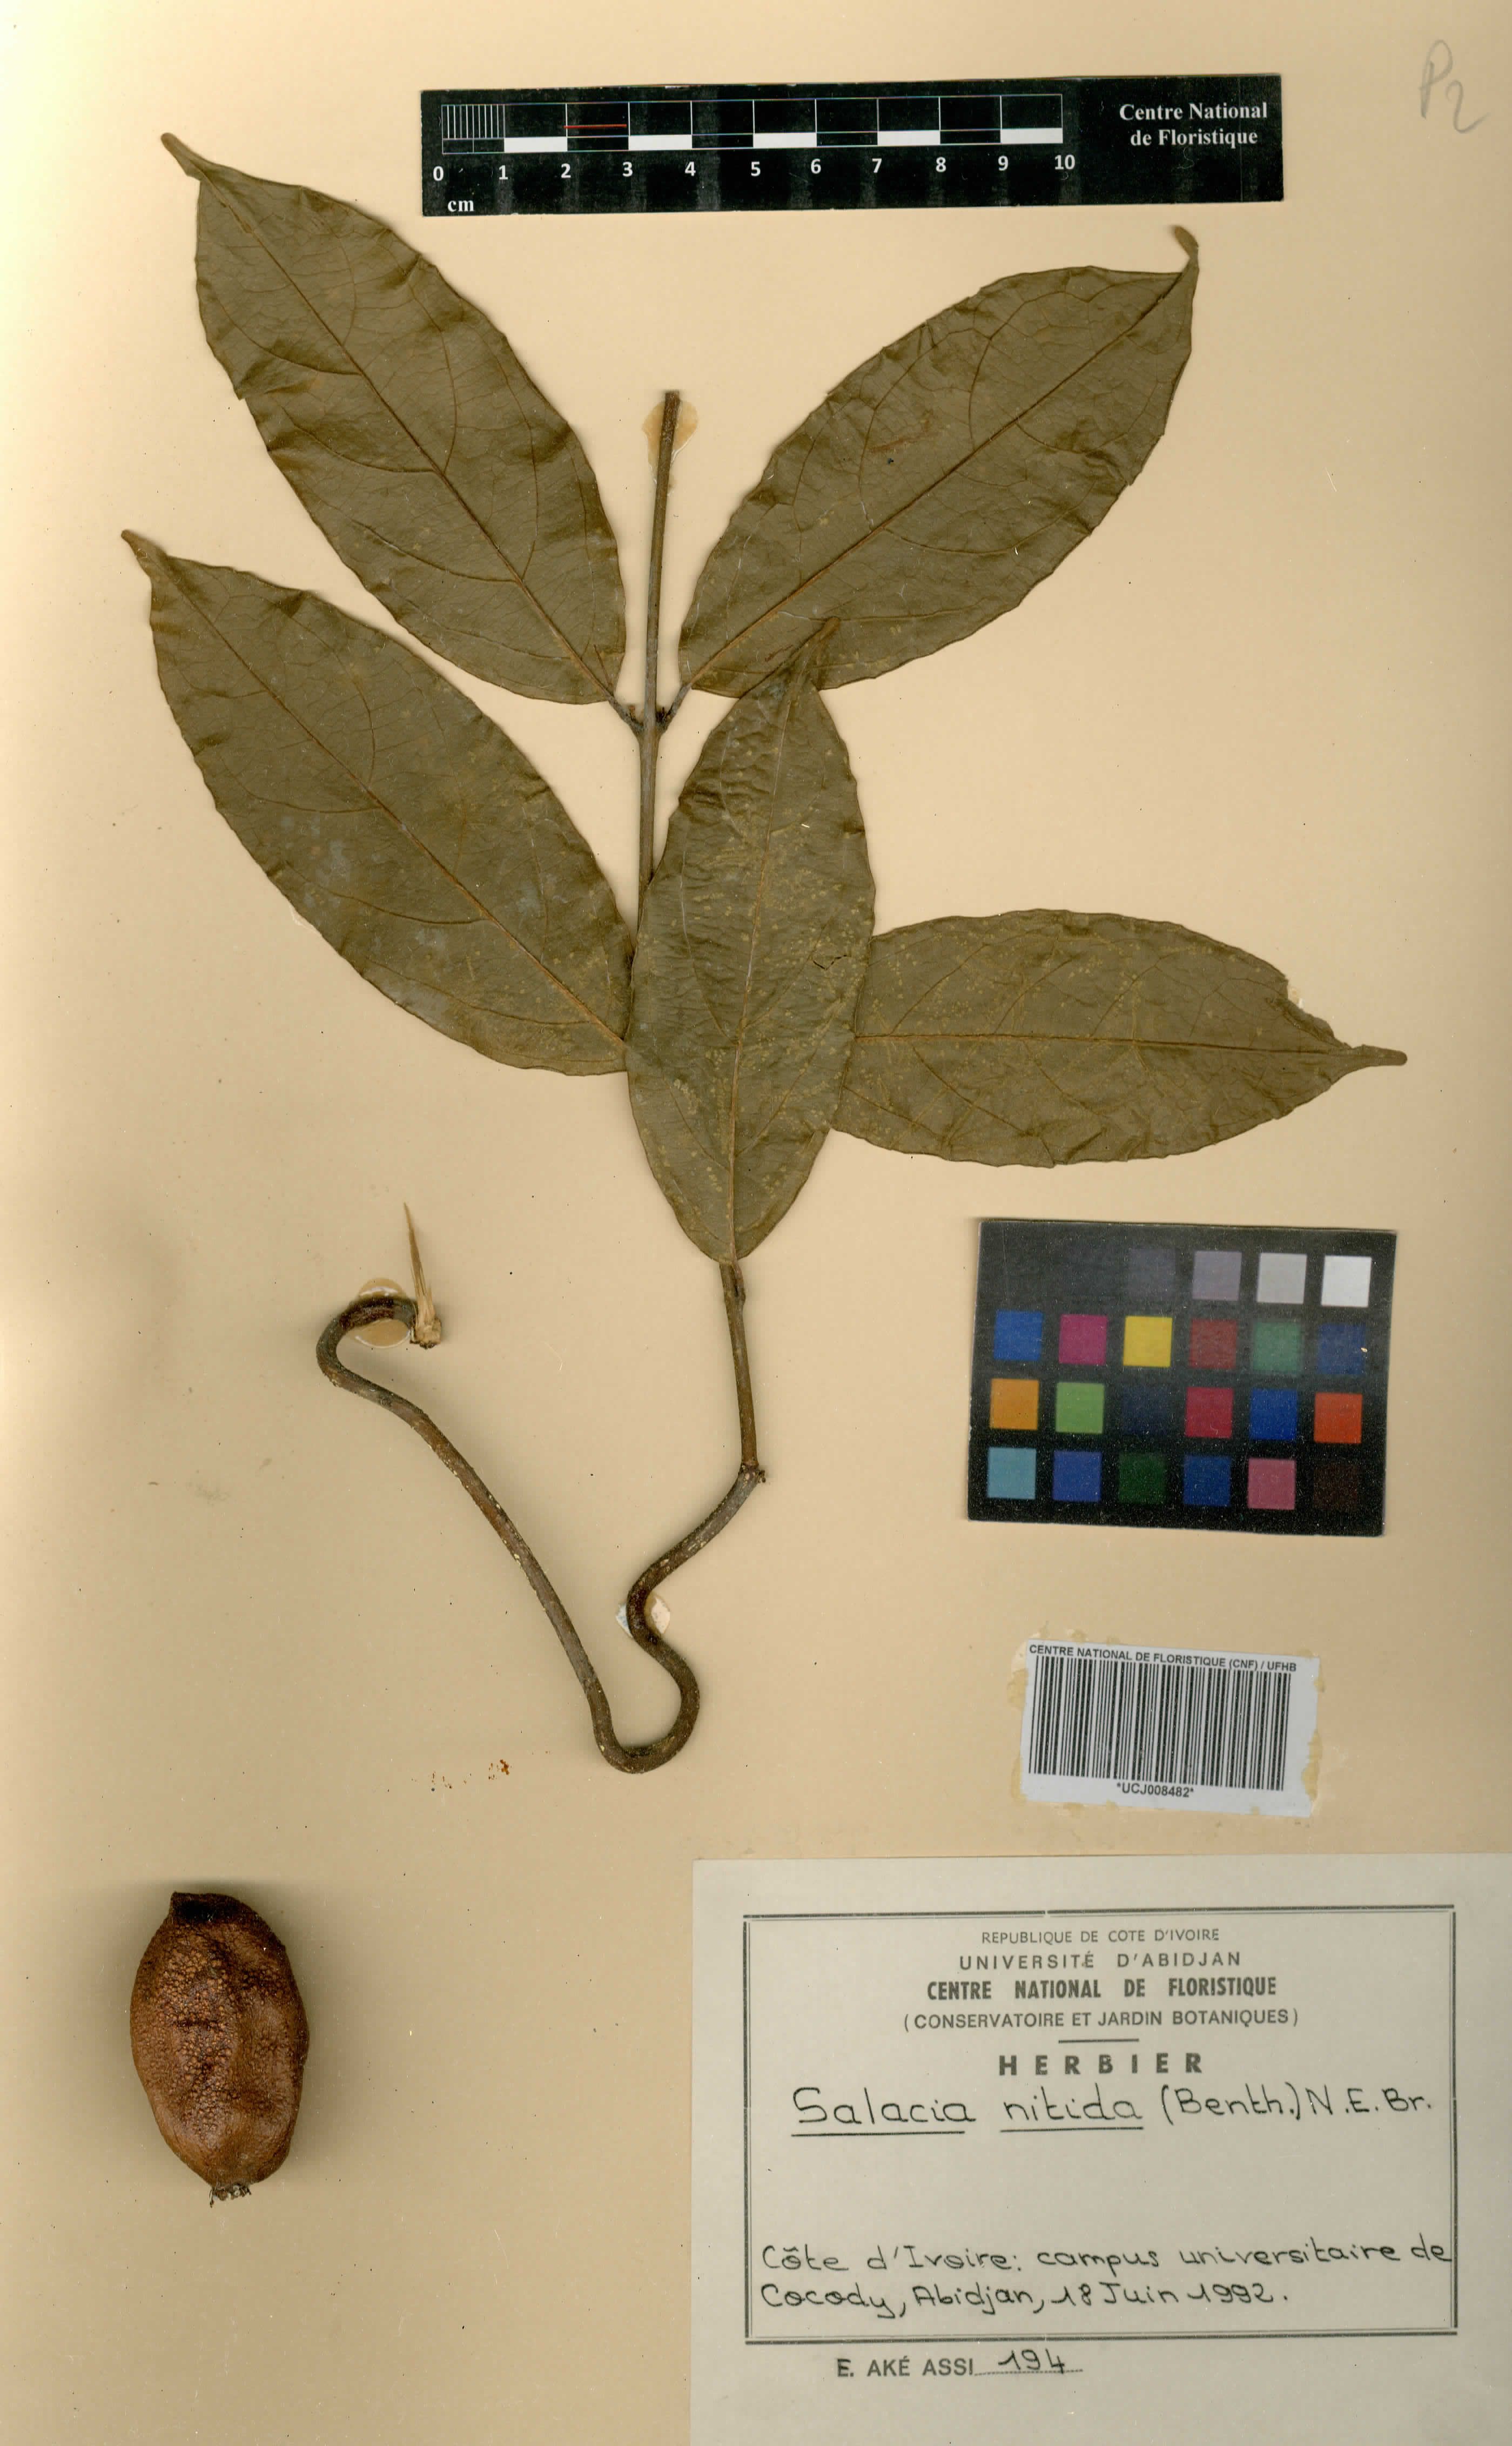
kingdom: Plantae
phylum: Tracheophyta
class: Magnoliopsida
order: Celastrales
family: Celastraceae
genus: Salacia
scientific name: Salacia nitida
